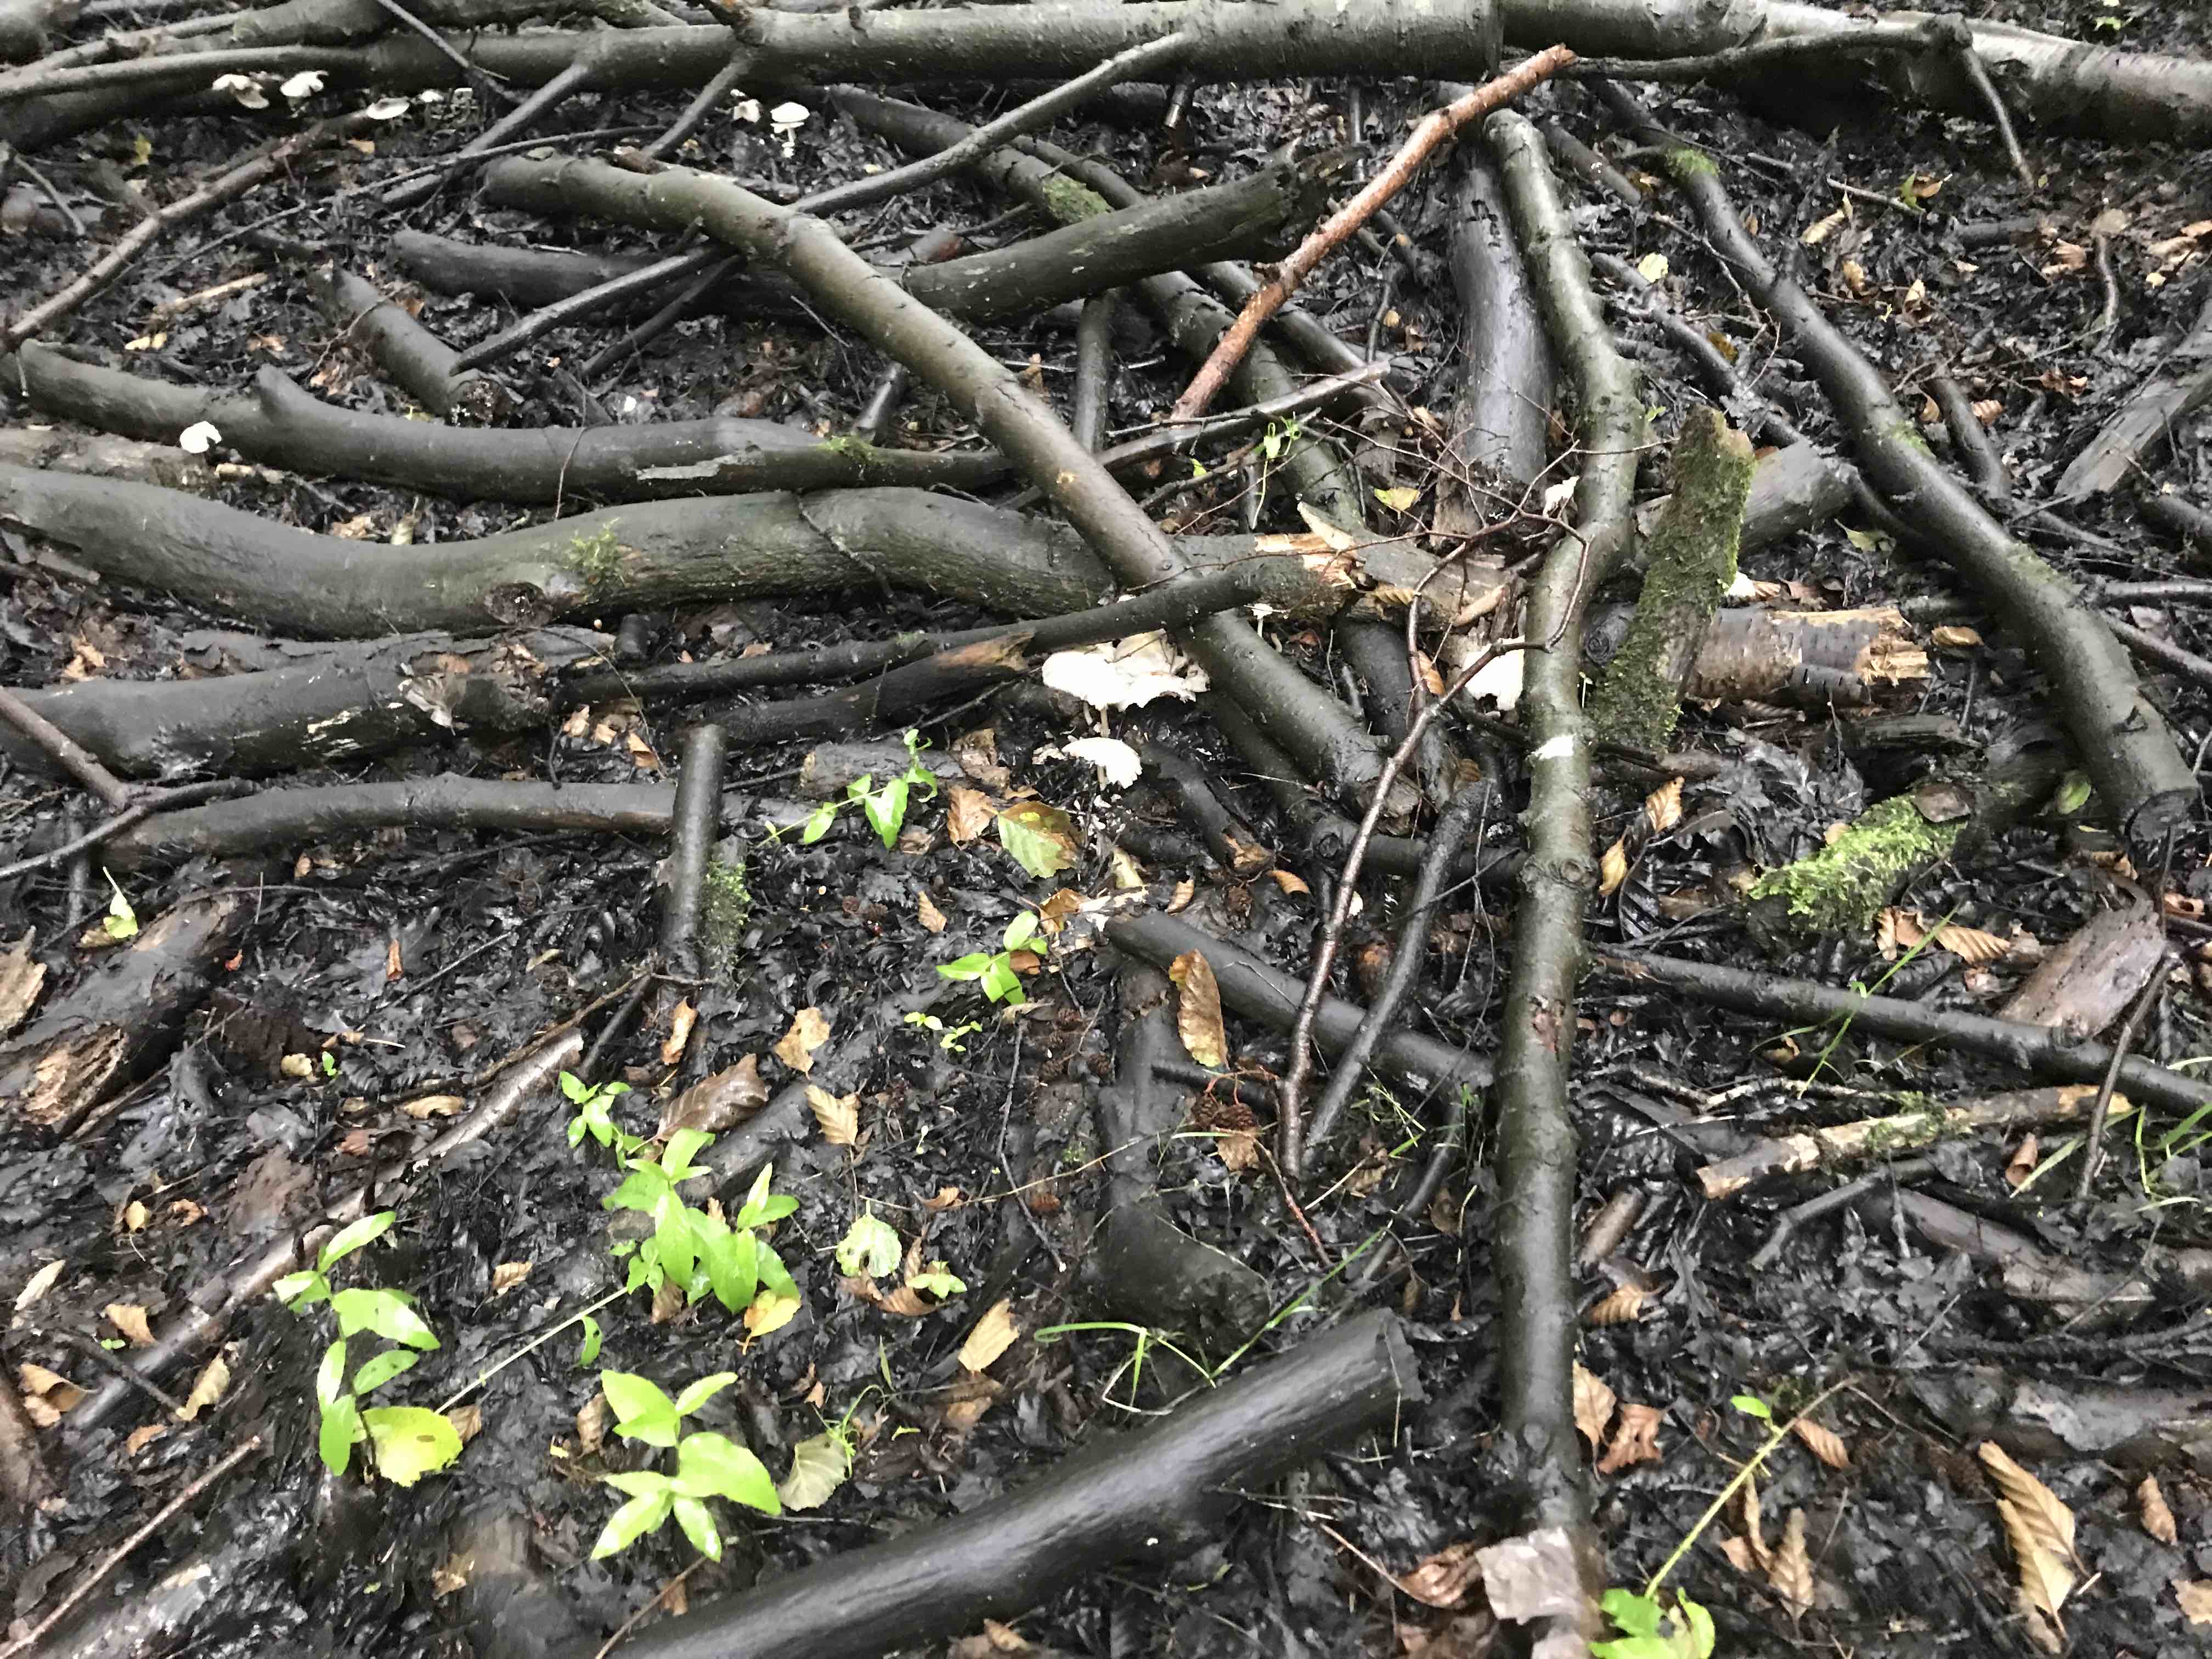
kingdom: Fungi
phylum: Basidiomycota
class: Agaricomycetes
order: Agaricales
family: Psathyrellaceae
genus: Candolleomyces
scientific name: Candolleomyces candolleanus
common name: Candolles mørkhat
